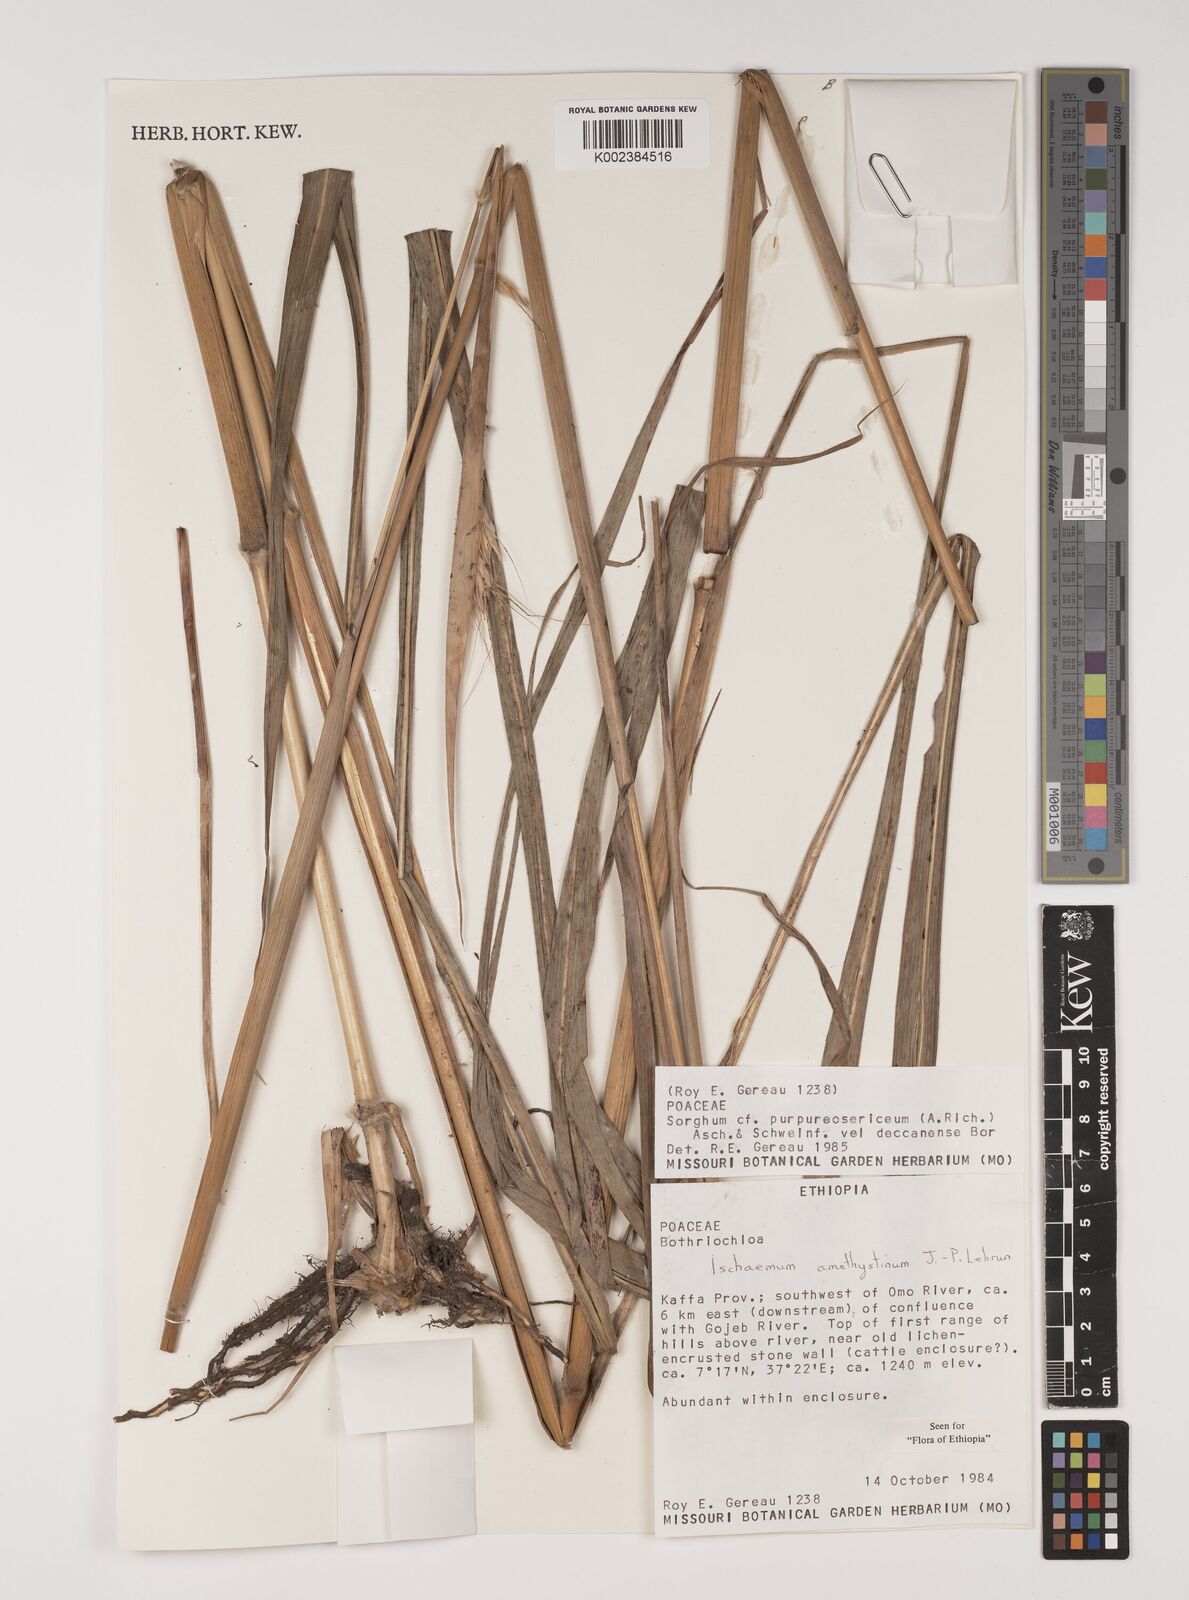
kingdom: Plantae
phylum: Tracheophyta
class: Liliopsida
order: Poales
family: Poaceae
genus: Ischaemum
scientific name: Ischaemum amethystinum
